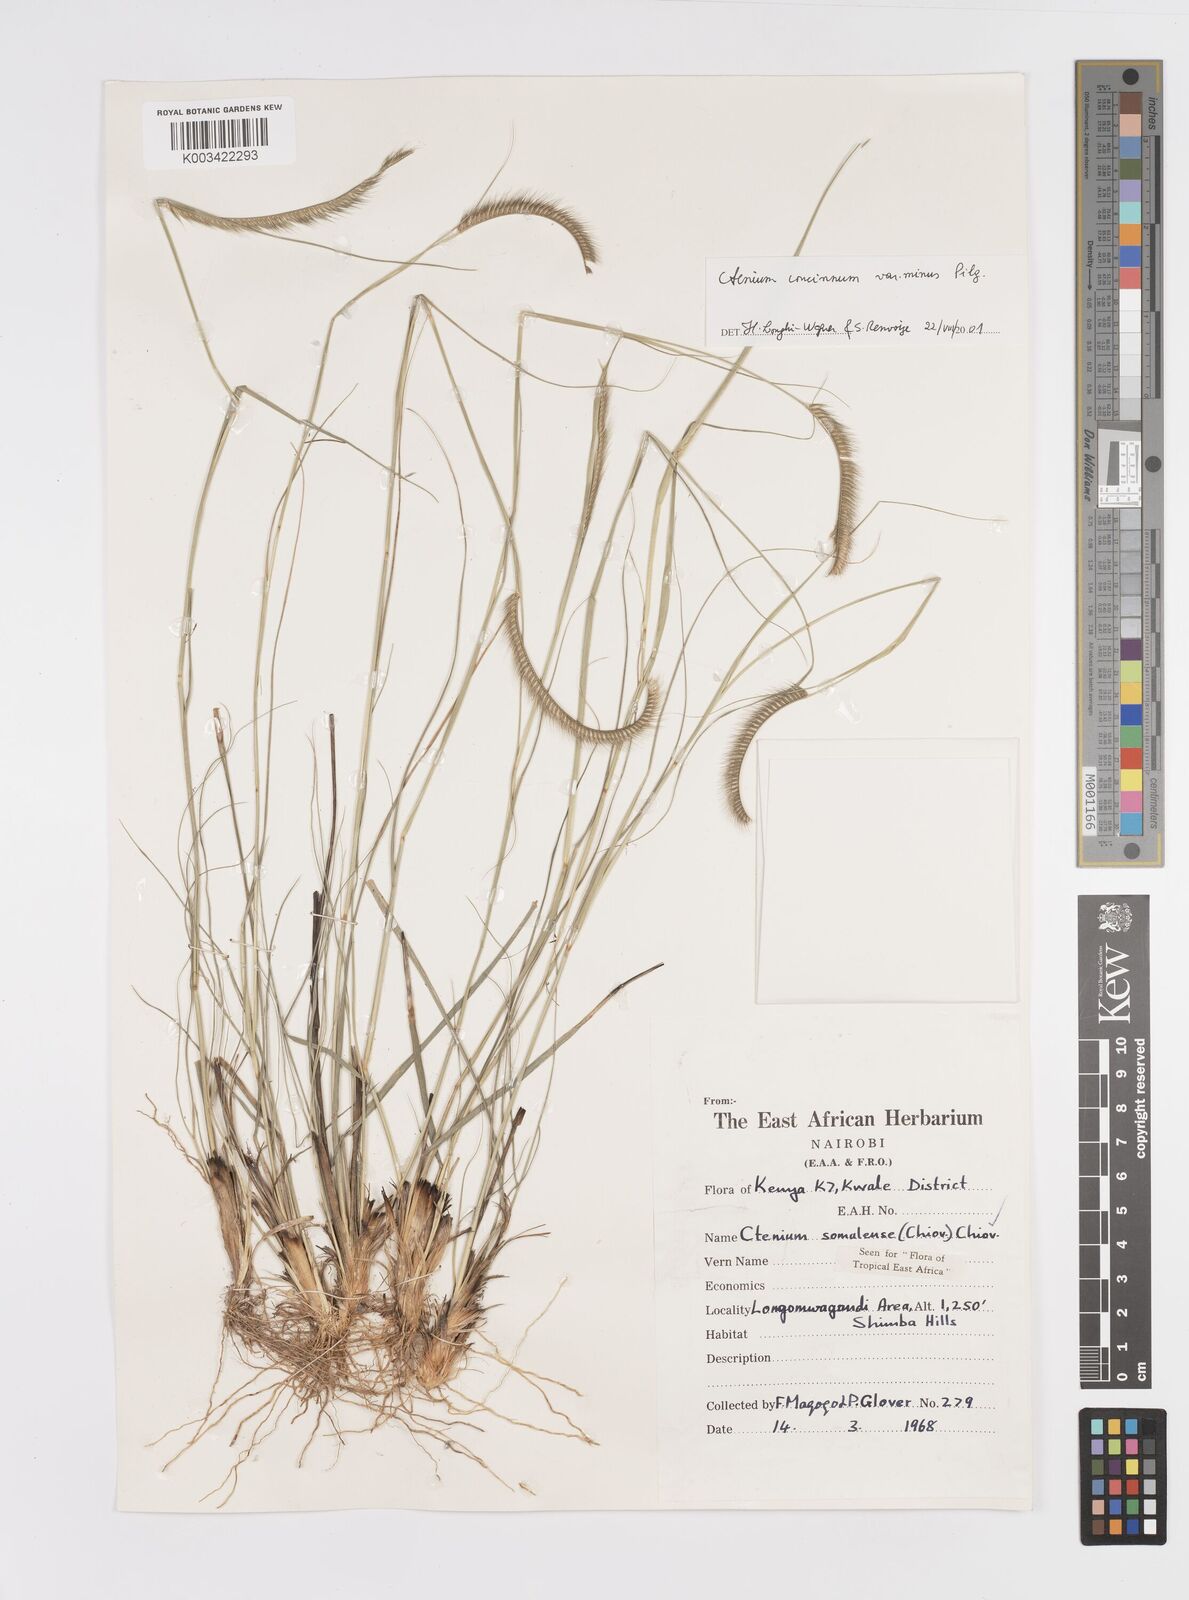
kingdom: Plantae
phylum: Tracheophyta
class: Liliopsida
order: Poales
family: Poaceae
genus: Ctenium
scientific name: Ctenium concinnum
